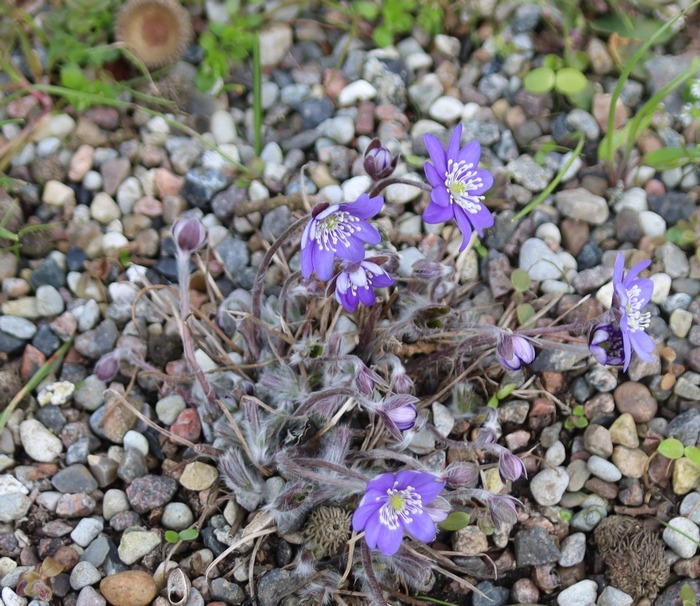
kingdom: Plantae
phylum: Tracheophyta
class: Magnoliopsida
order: Ranunculales
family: Ranunculaceae
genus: Hepatica
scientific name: Hepatica transsilvanica
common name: Ungarsk anemone
